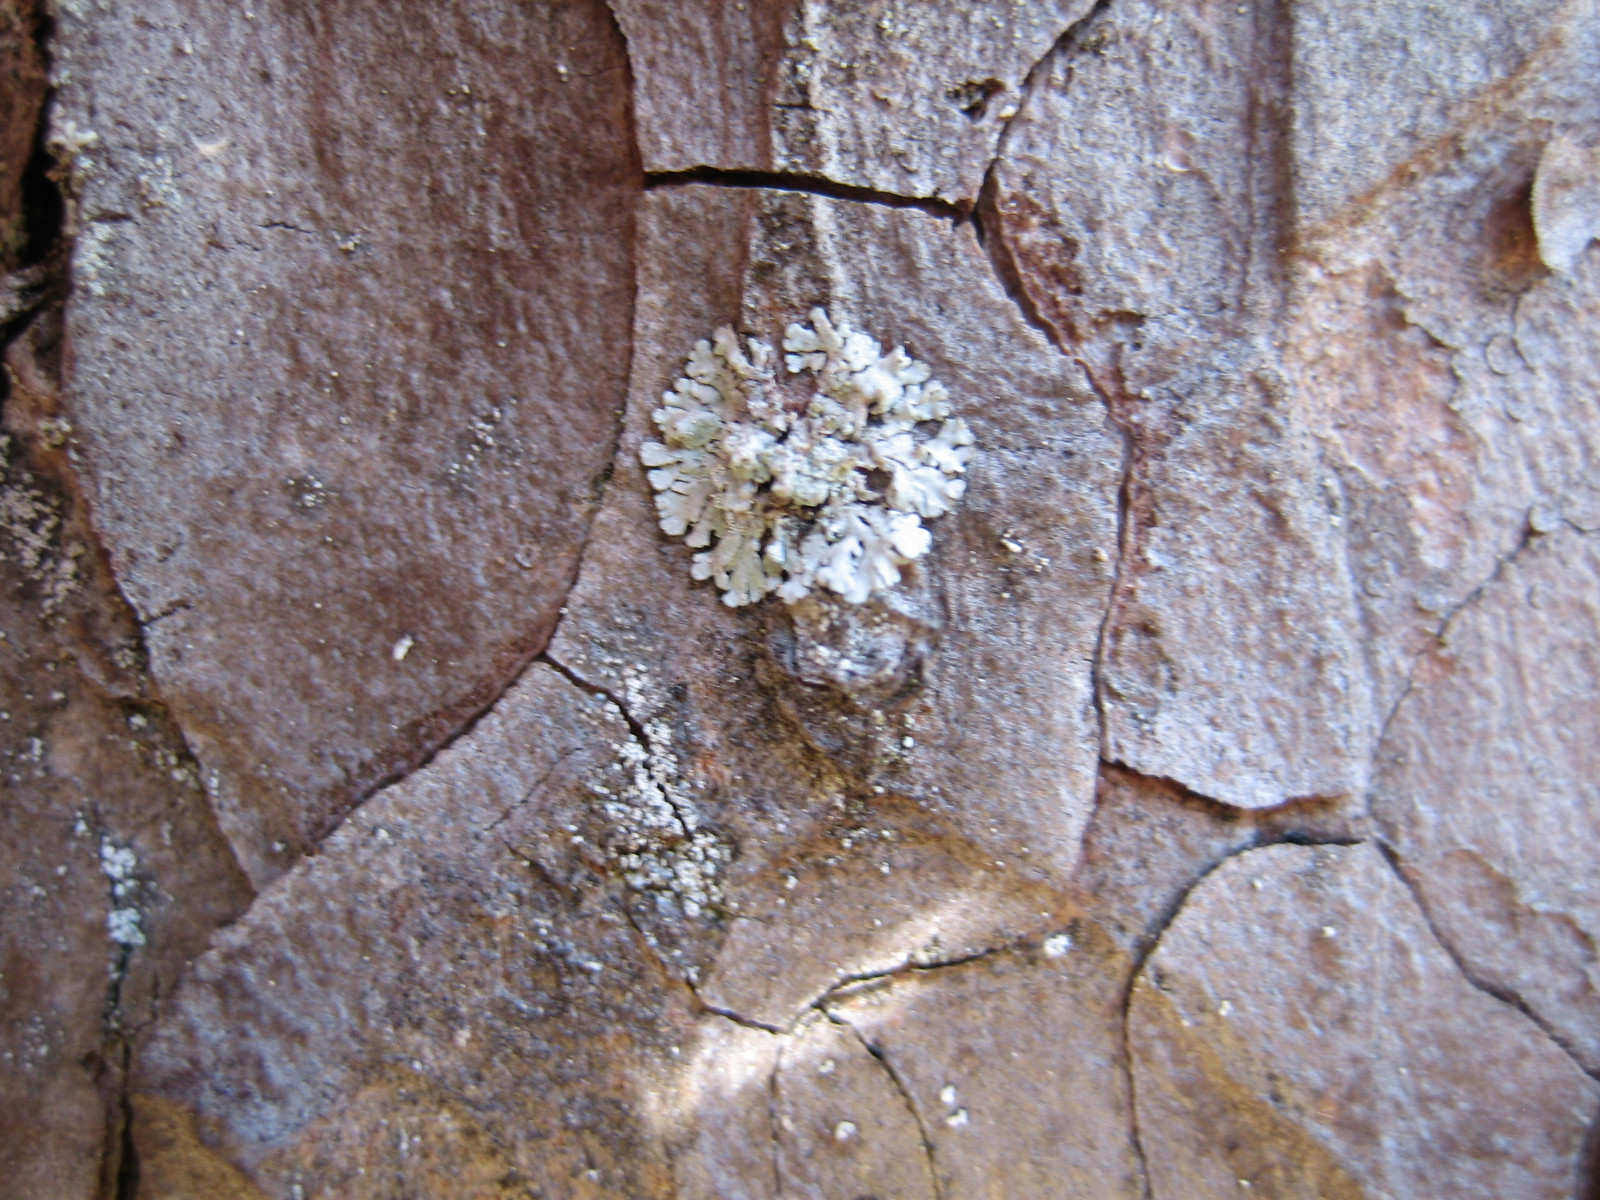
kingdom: Fungi
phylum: Ascomycota
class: Lecanoromycetes
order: Lecanorales
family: Parmeliaceae
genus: Parmeliopsis
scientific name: Parmeliopsis hyperopta
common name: grå stolpelav
